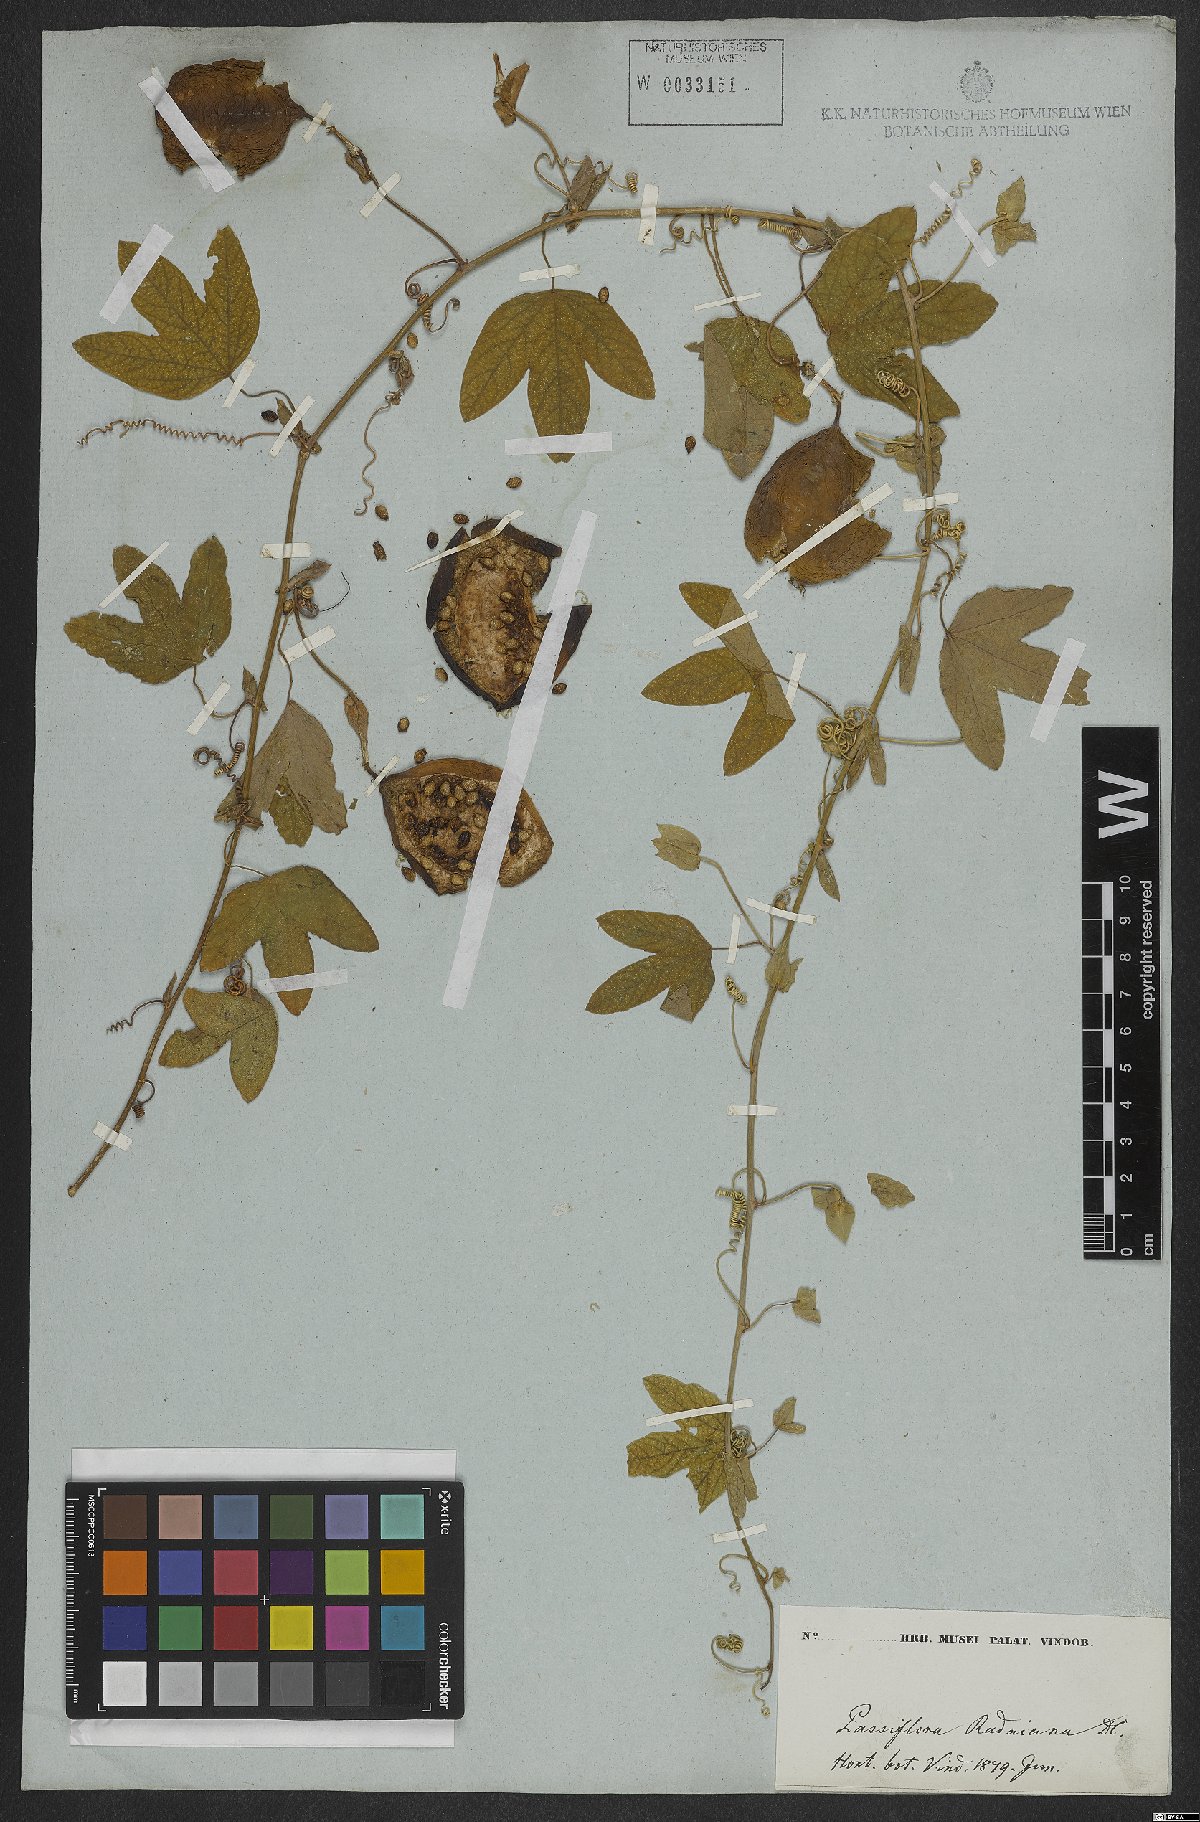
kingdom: Plantae
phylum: Tracheophyta
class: Magnoliopsida
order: Malpighiales
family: Passifloraceae
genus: Passiflora
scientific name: Passiflora kermesina
